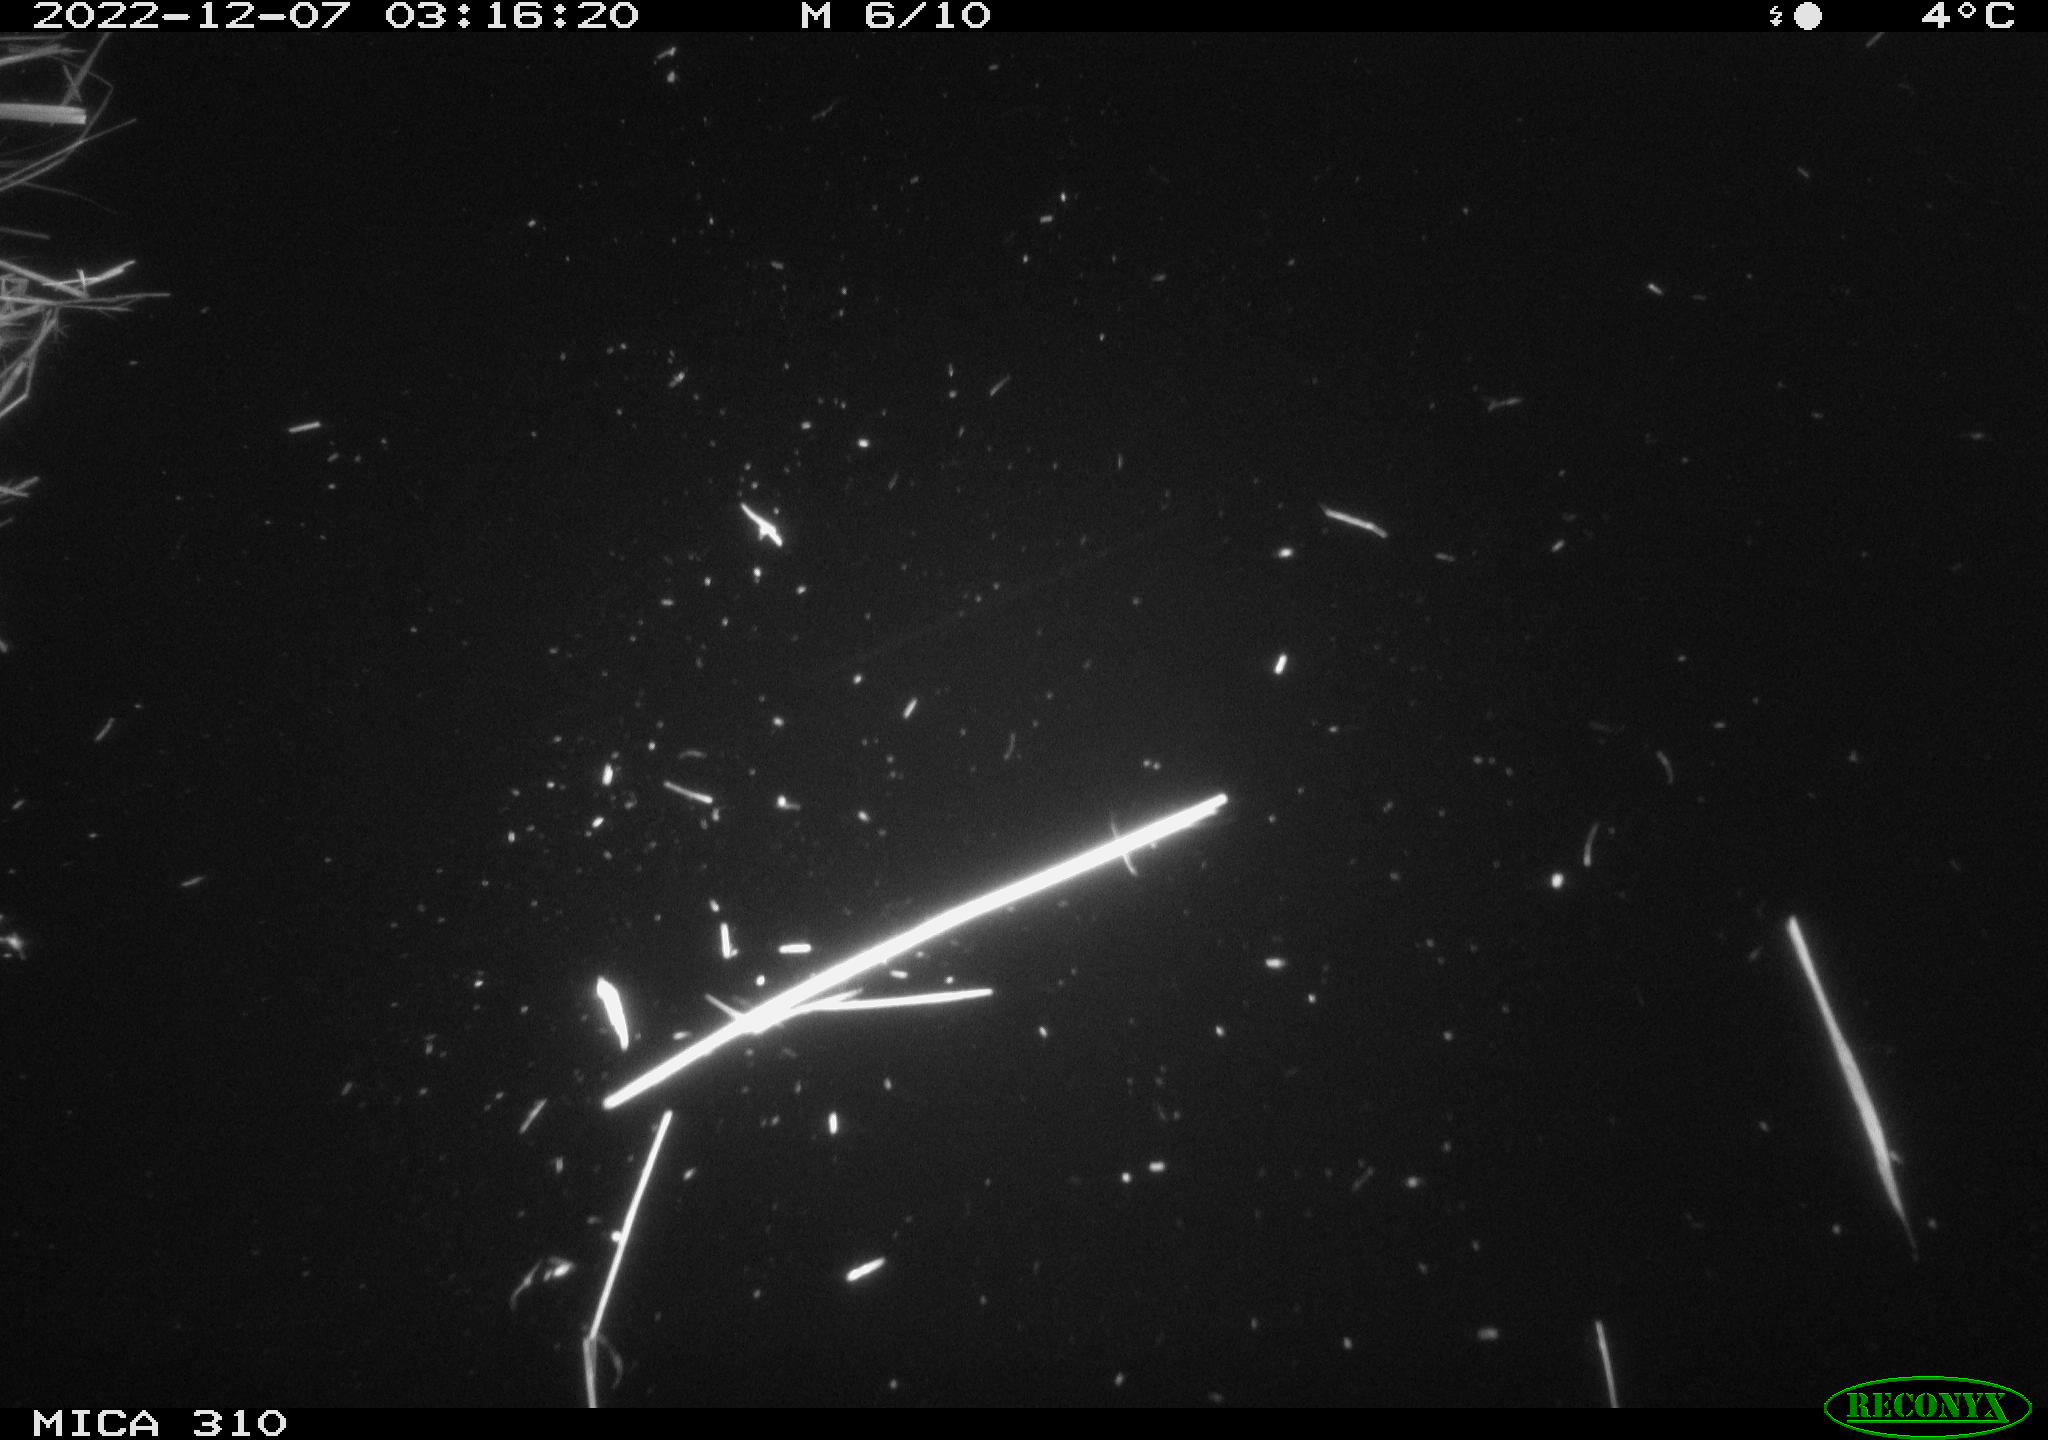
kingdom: Animalia
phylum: Chordata
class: Mammalia
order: Rodentia
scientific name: Rodentia
